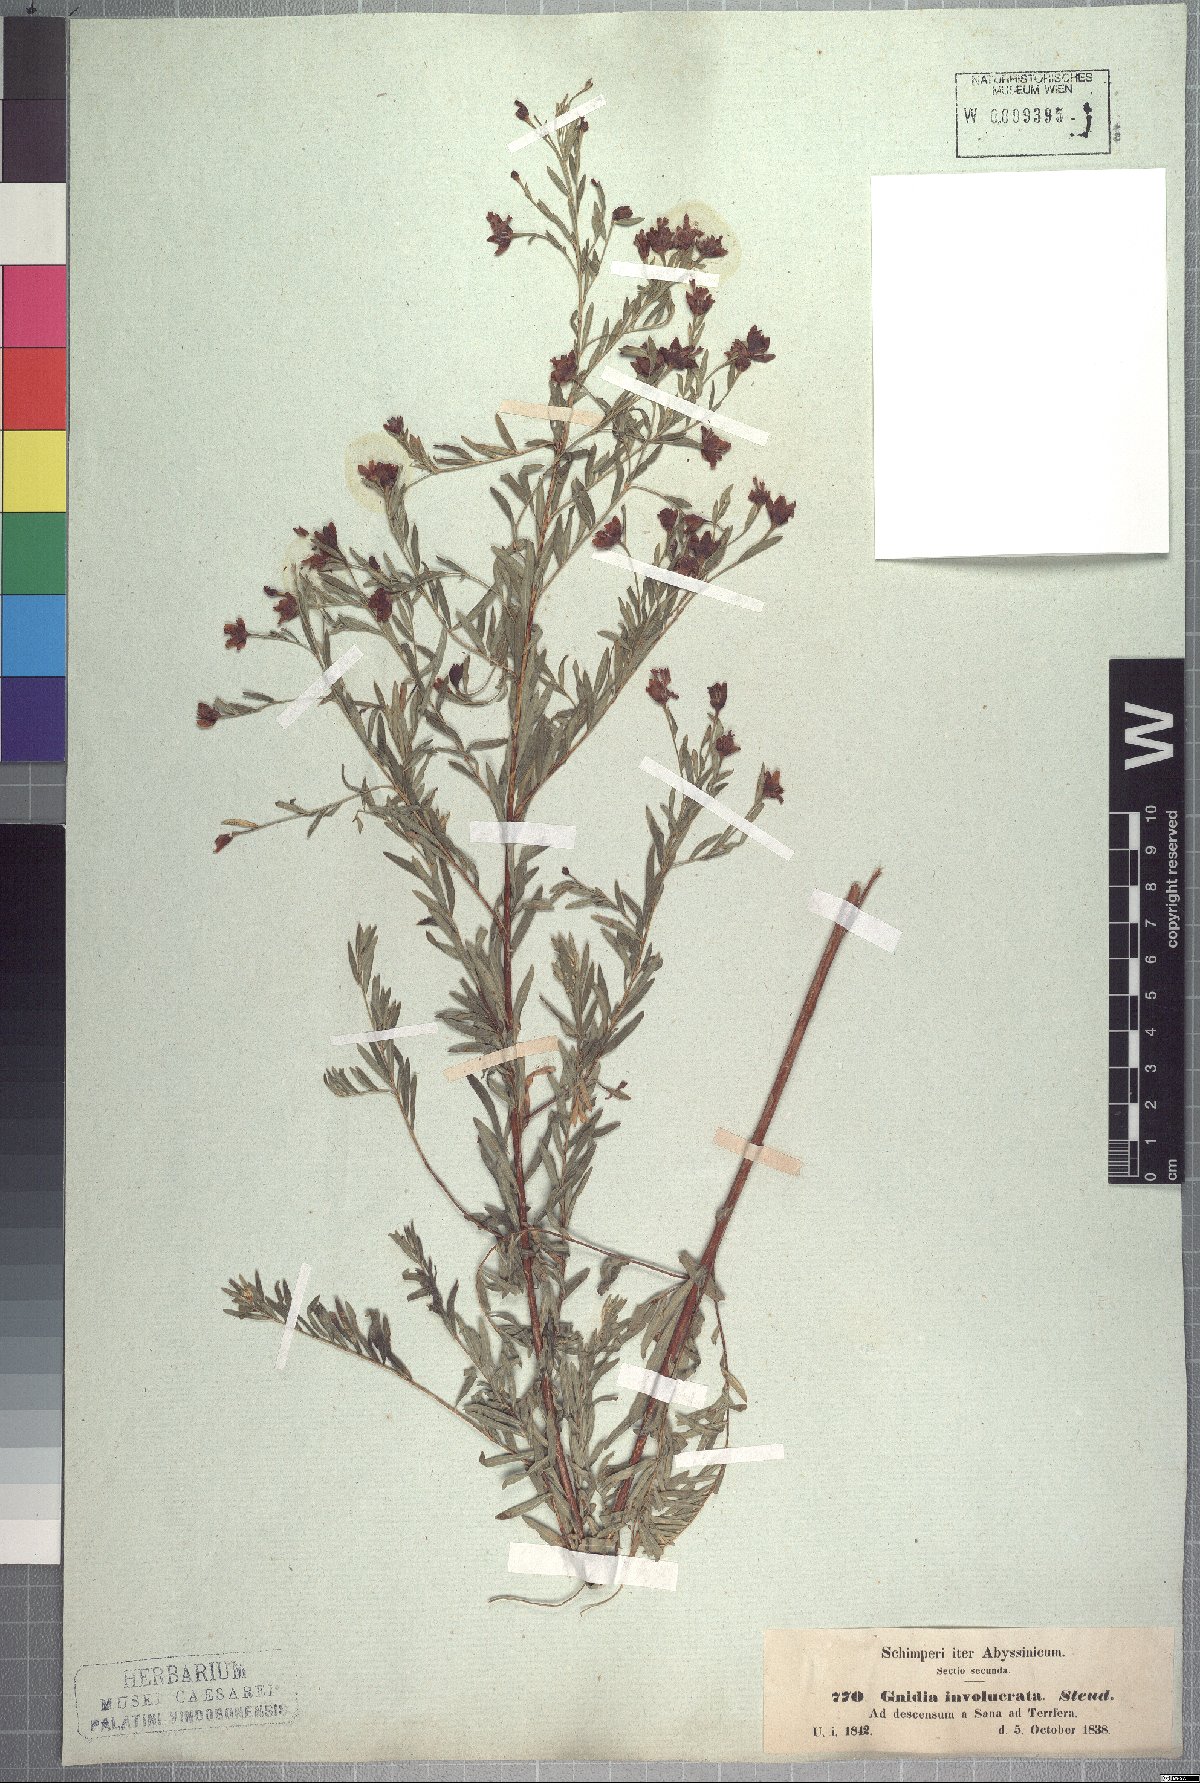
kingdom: Plantae
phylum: Tracheophyta
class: Magnoliopsida
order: Malvales
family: Thymelaeaceae
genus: Gnidia
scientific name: Gnidia involucrata
